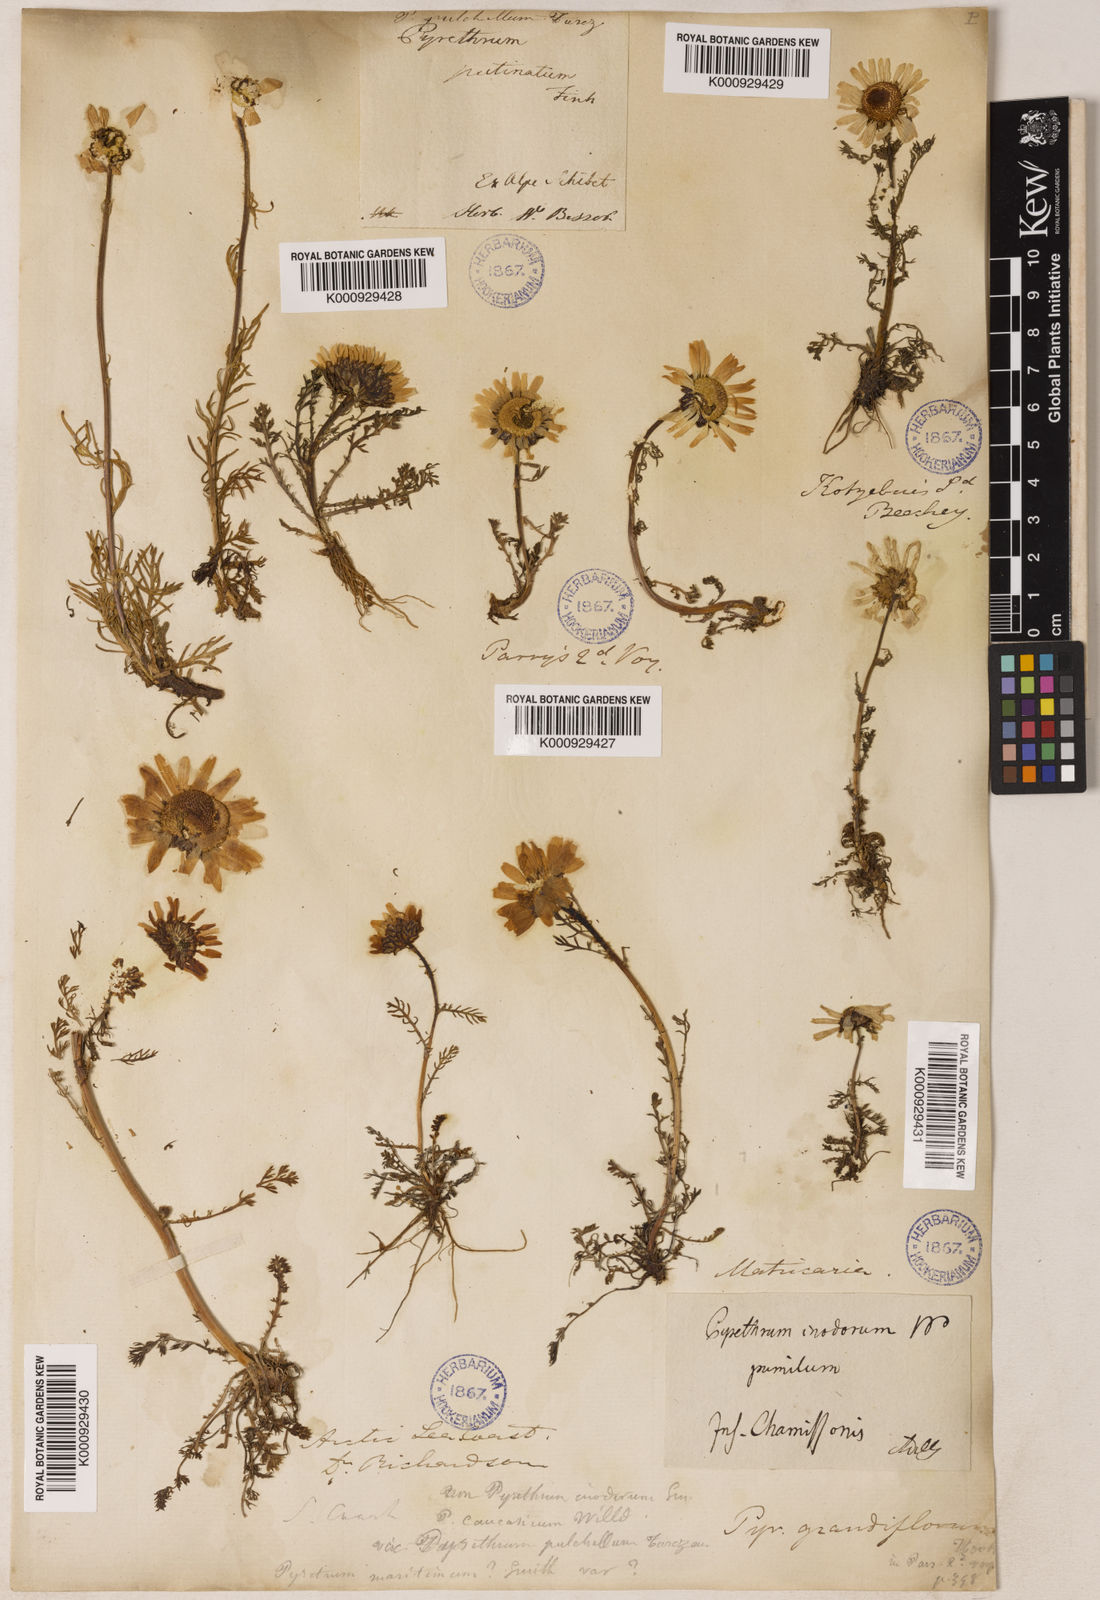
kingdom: Plantae
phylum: Tracheophyta
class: Magnoliopsida
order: Asterales
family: Asteraceae
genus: Tripleurospermum
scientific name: Tripleurospermum
